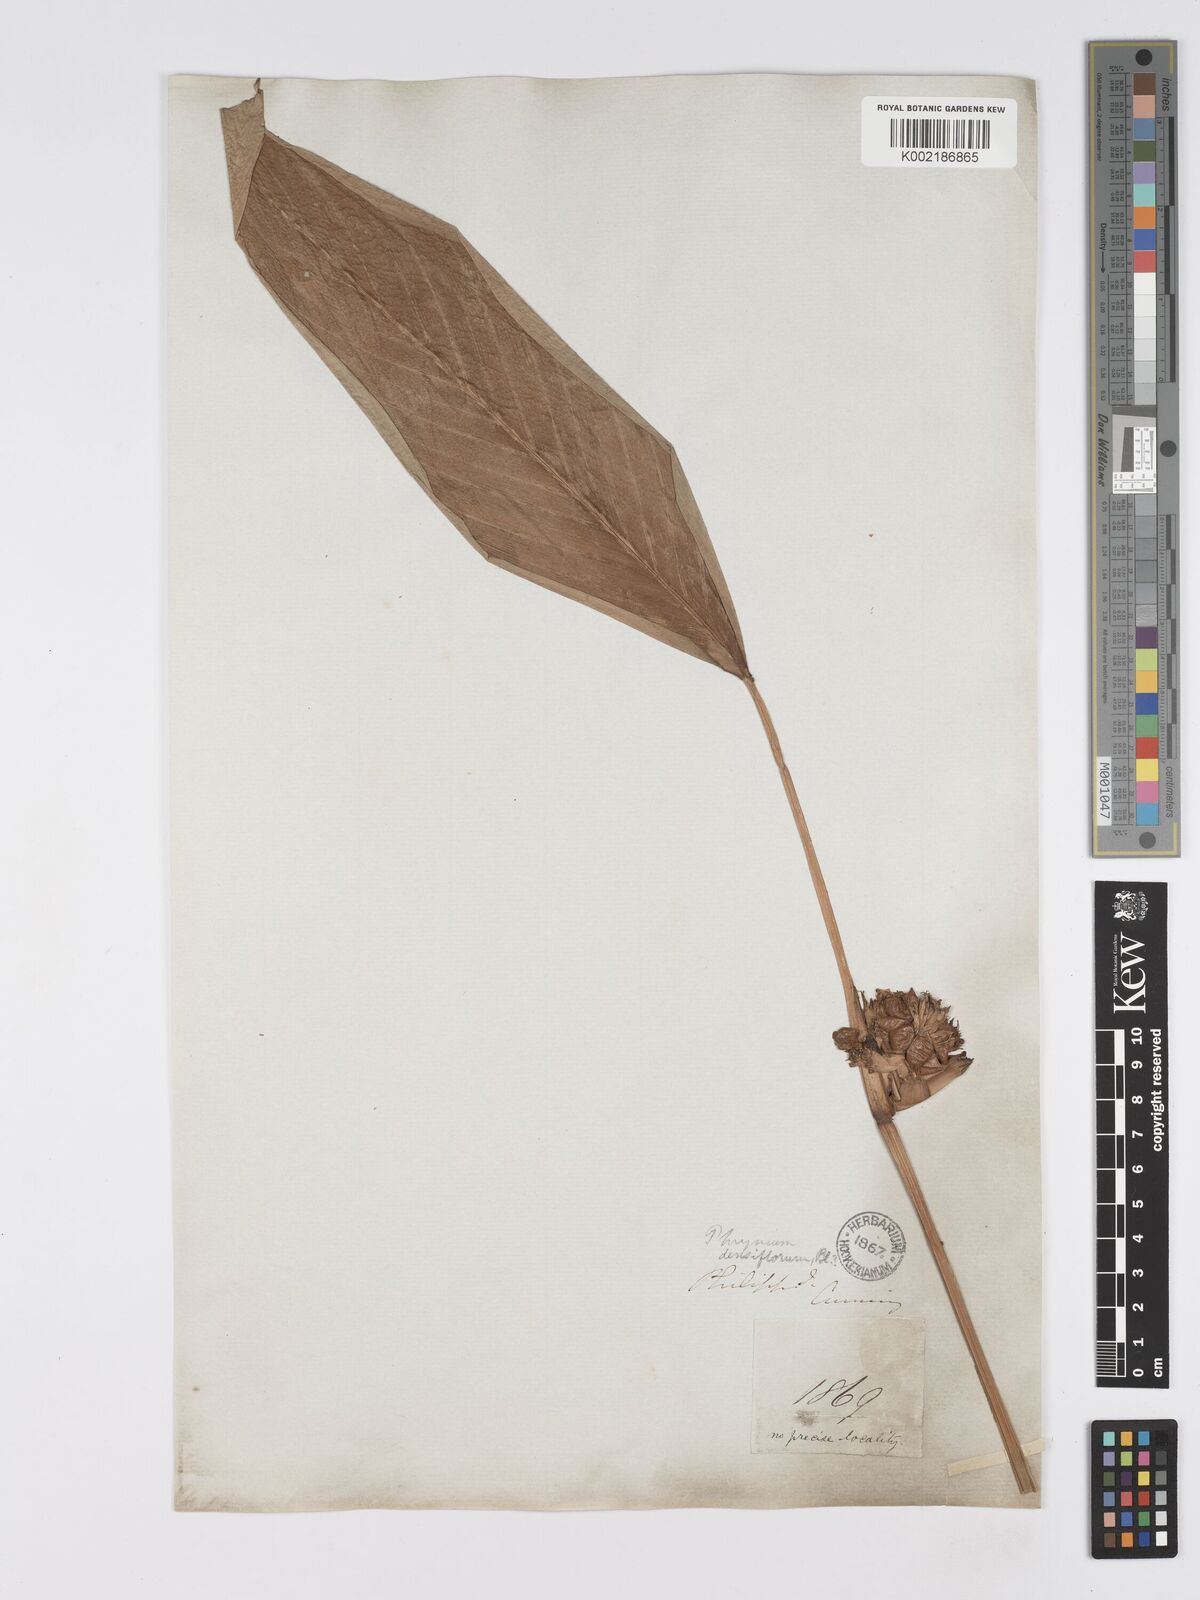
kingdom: Plantae
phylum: Tracheophyta
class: Liliopsida
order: Zingiberales
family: Marantaceae
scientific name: Marantaceae
